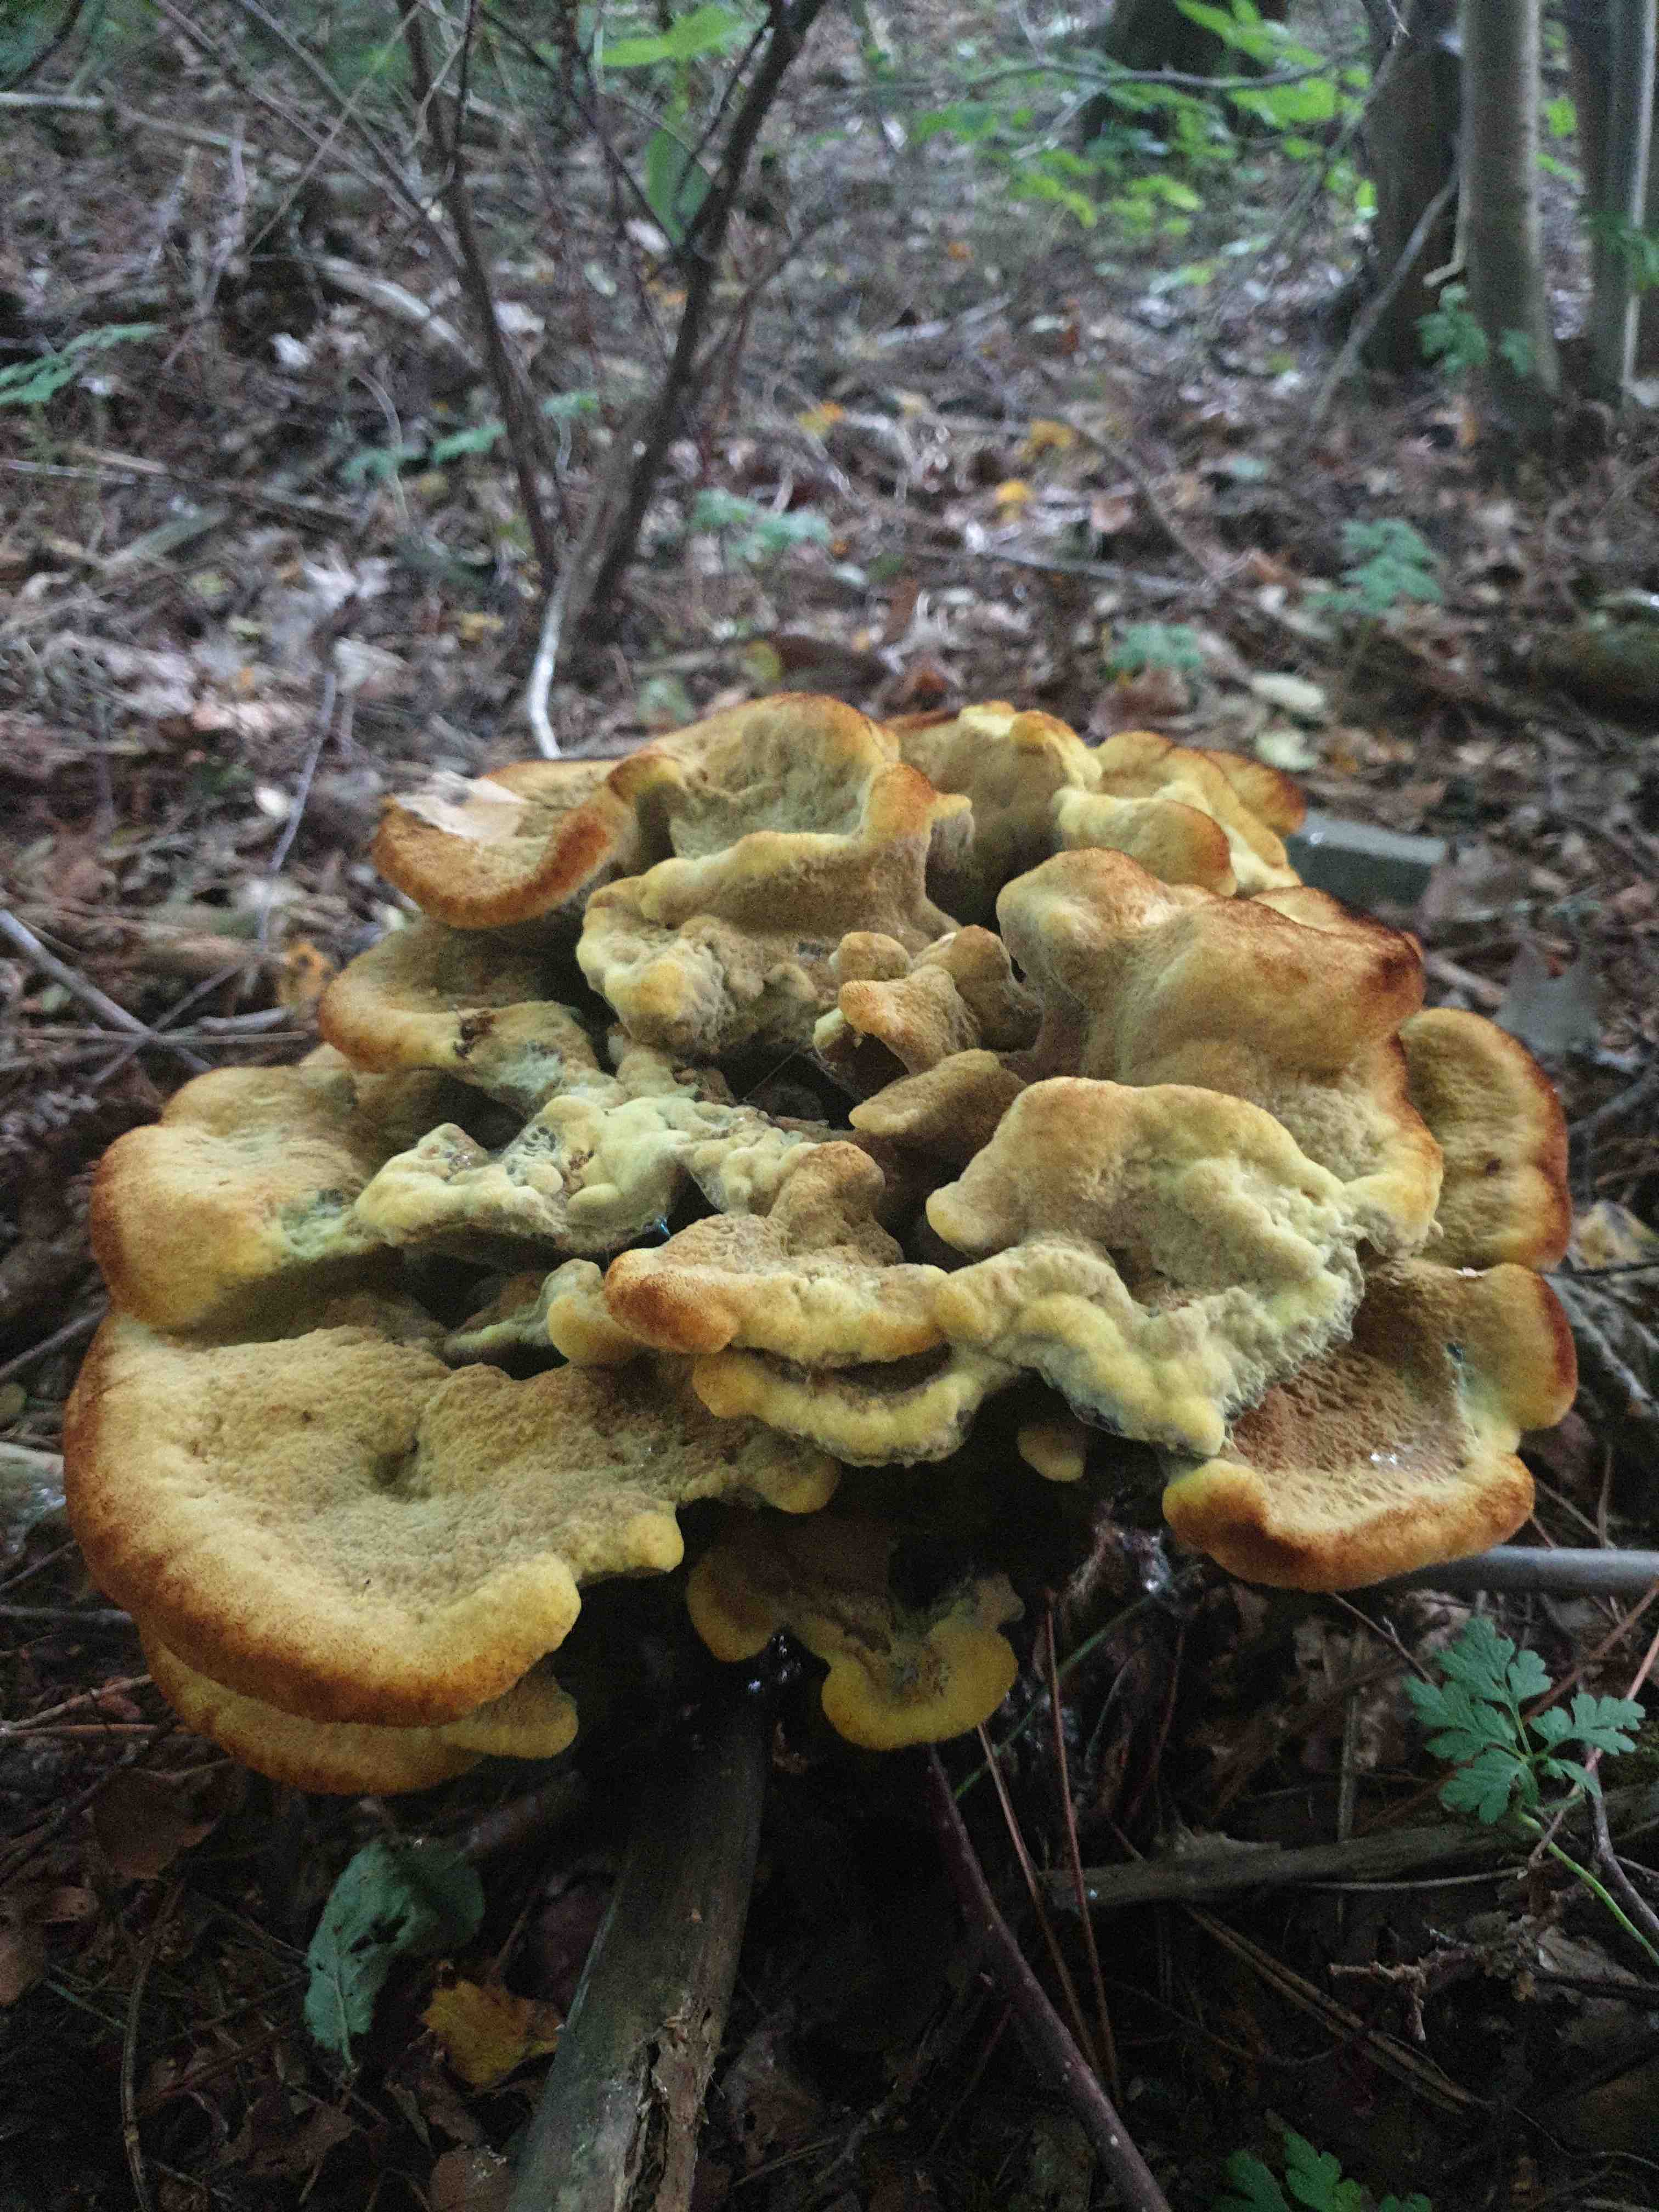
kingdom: Fungi
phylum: Basidiomycota
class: Agaricomycetes
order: Polyporales
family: Laetiporaceae
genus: Phaeolus
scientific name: Phaeolus schweinitzii
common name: brunporesvamp
